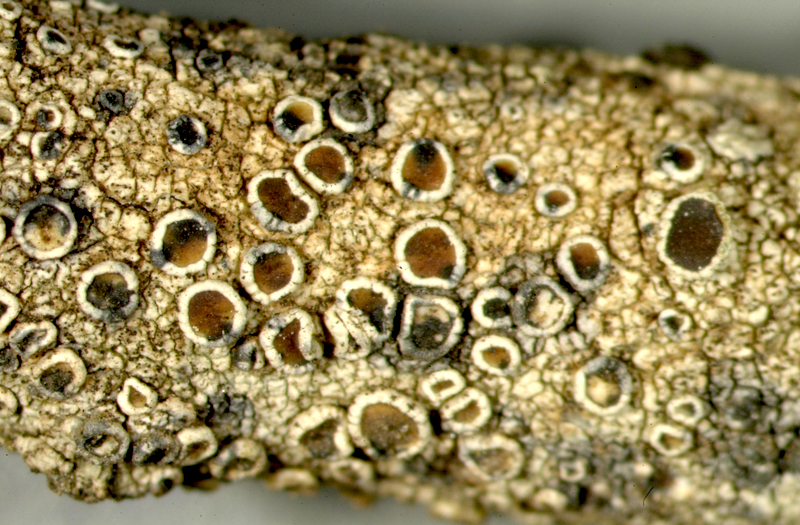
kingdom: Fungi
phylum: Ascomycota
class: Lecanoromycetes
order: Pertusariales
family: Ochrolechiaceae
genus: Ochrolechia
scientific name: Ochrolechia
